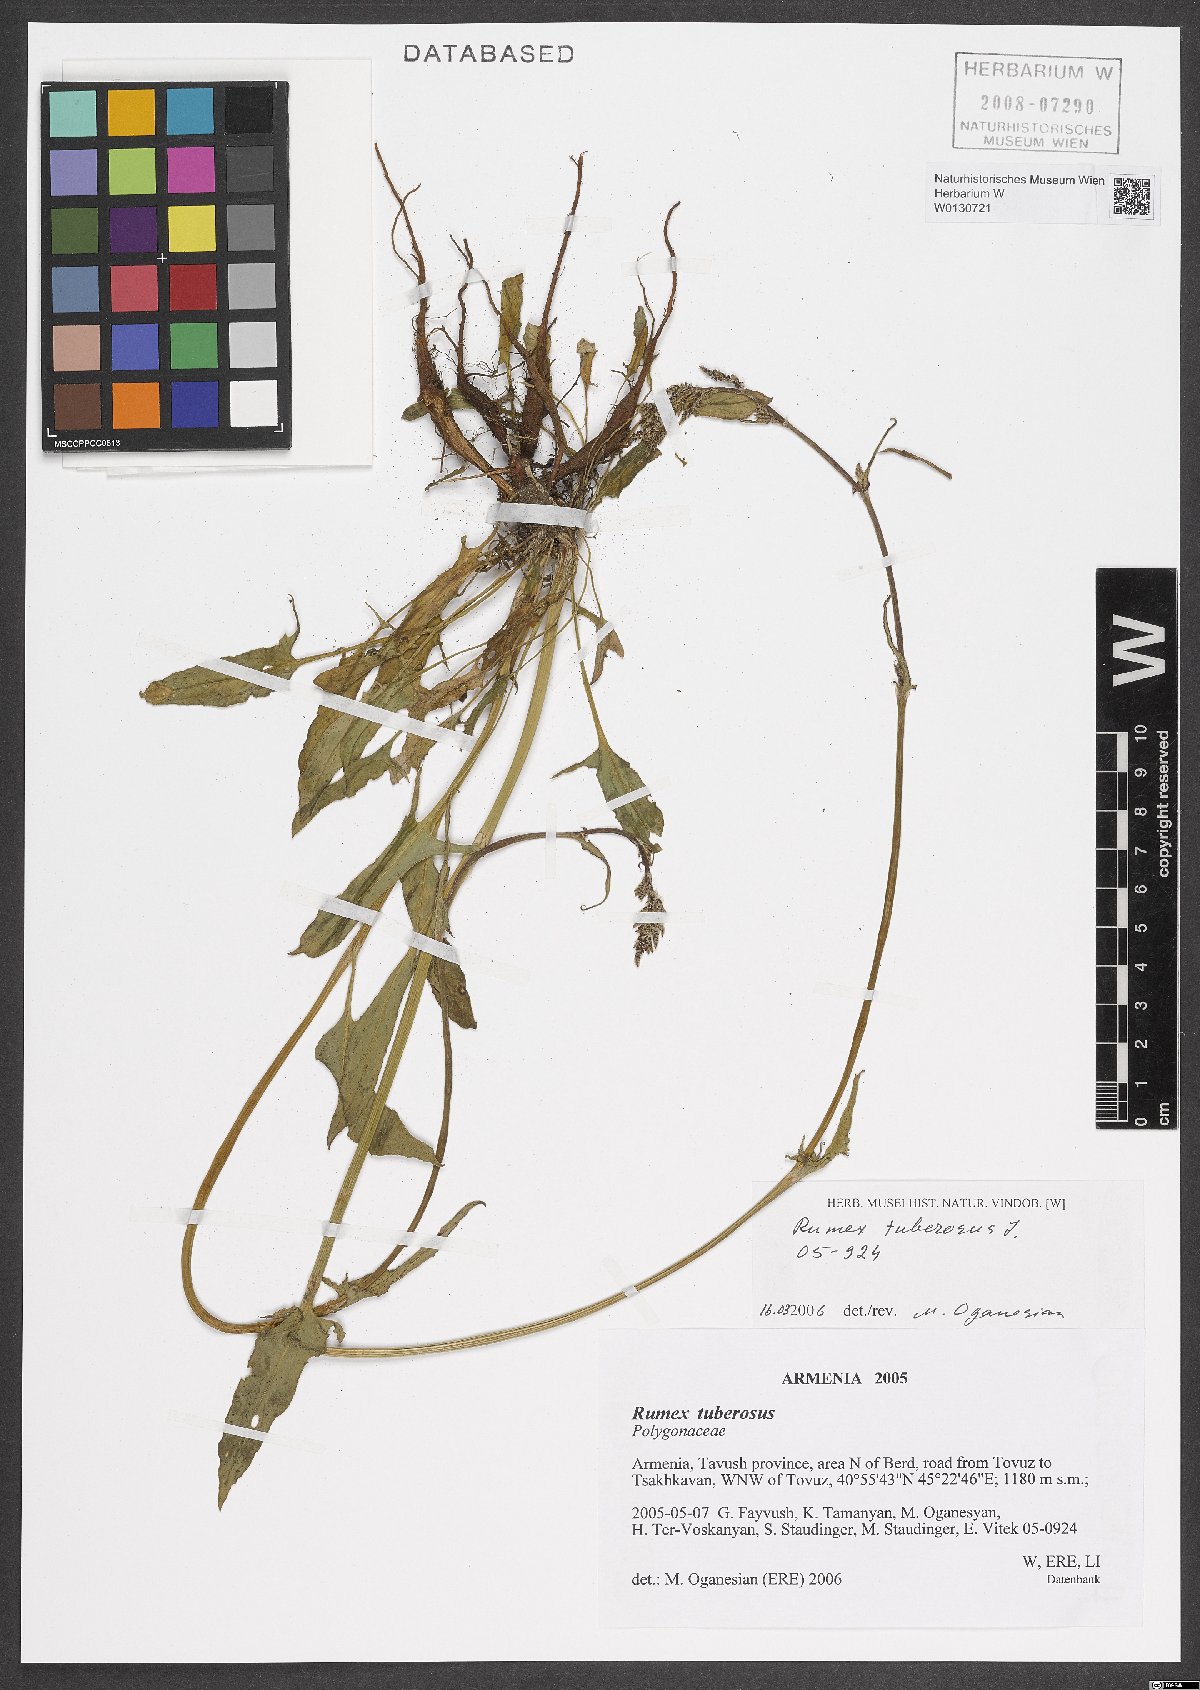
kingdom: Plantae
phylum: Tracheophyta
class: Magnoliopsida
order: Caryophyllales
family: Polygonaceae
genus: Rumex
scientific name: Rumex tuberosus
